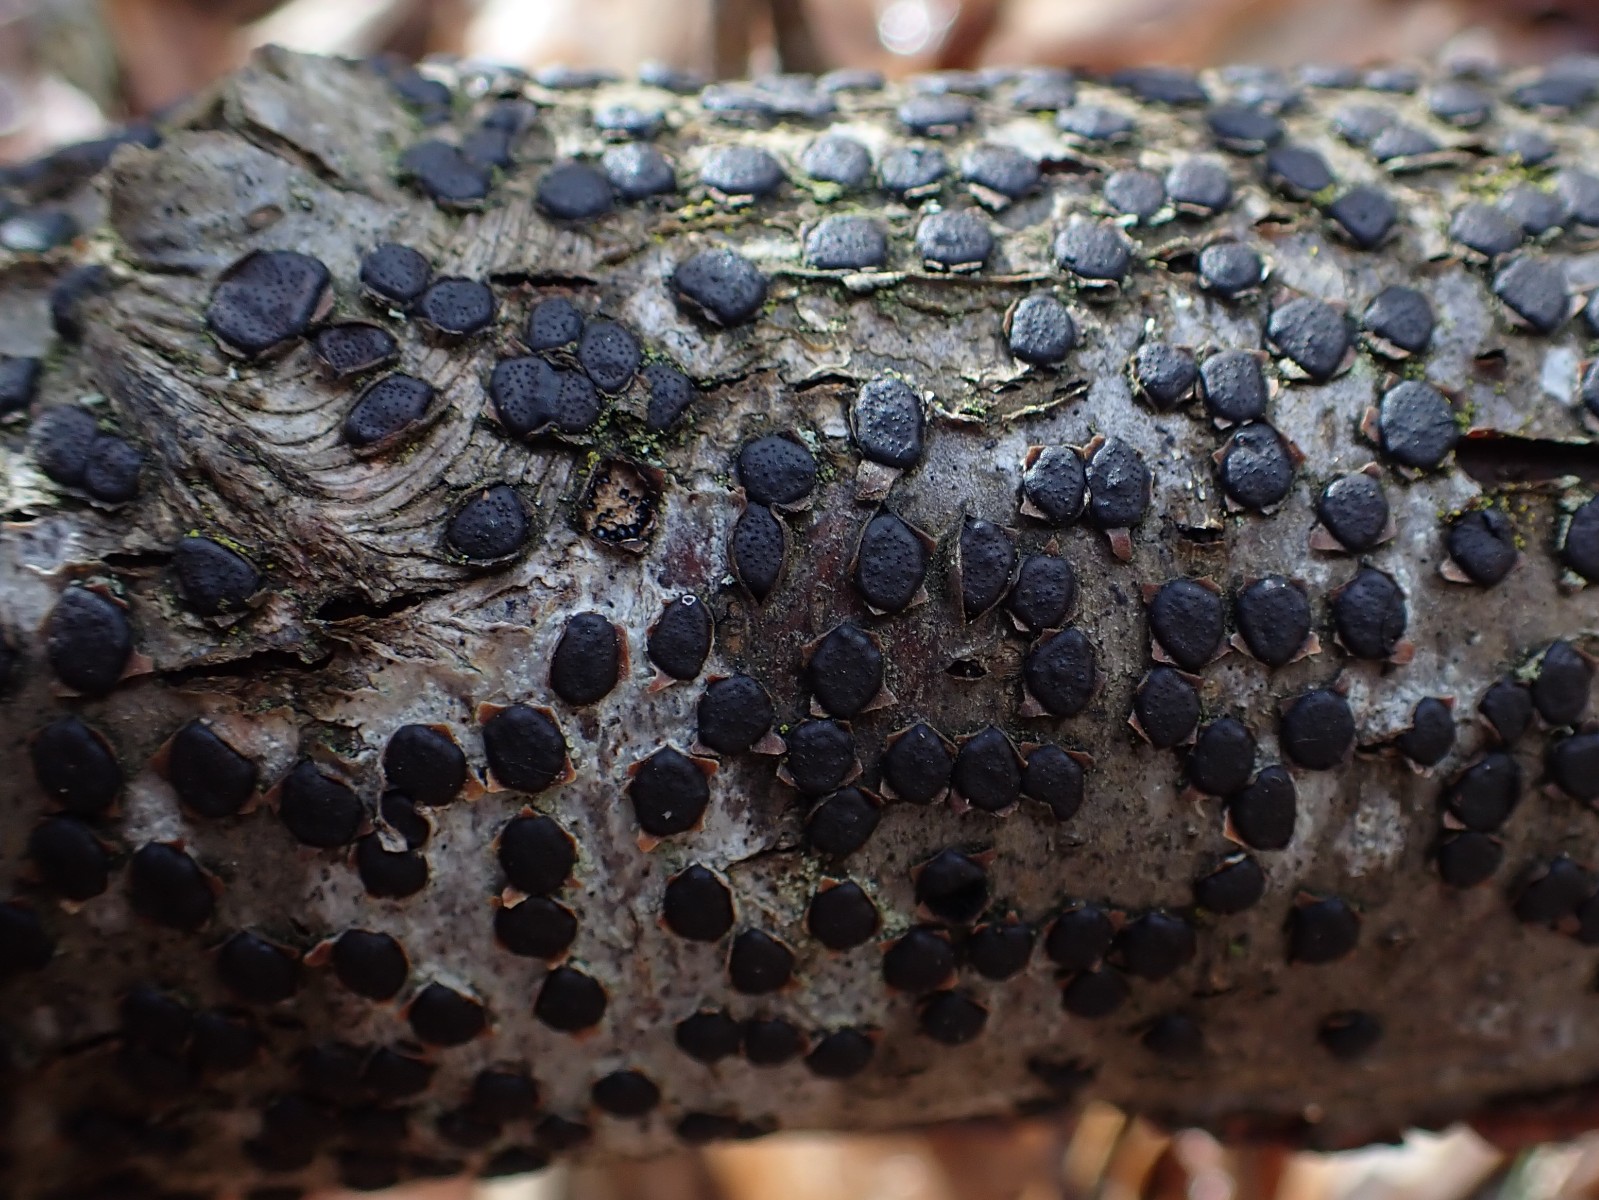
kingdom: Fungi
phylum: Ascomycota
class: Sordariomycetes
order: Xylariales
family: Diatrypaceae
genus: Diatrype
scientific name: Diatrype disciformis
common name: kant-kulskorpe
